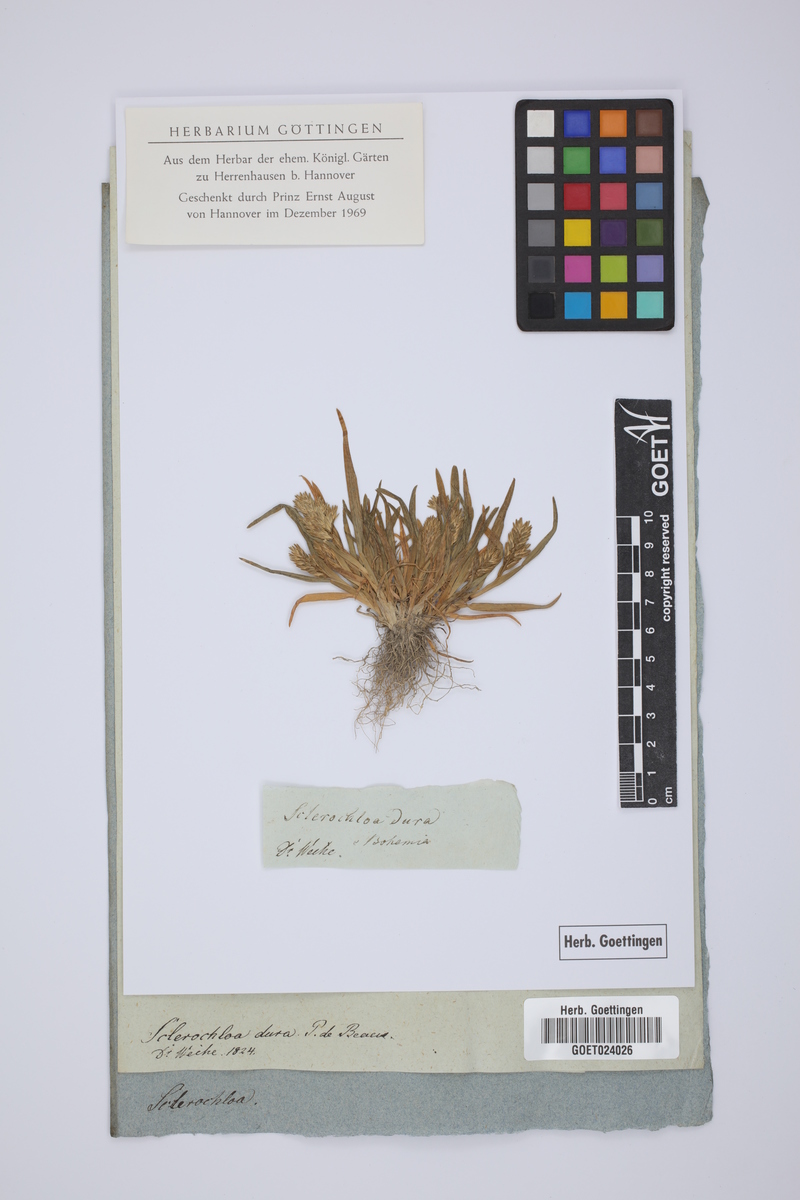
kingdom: Plantae
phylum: Tracheophyta
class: Liliopsida
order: Poales
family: Poaceae
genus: Sclerochloa
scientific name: Sclerochloa dura
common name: Common hardgrass
